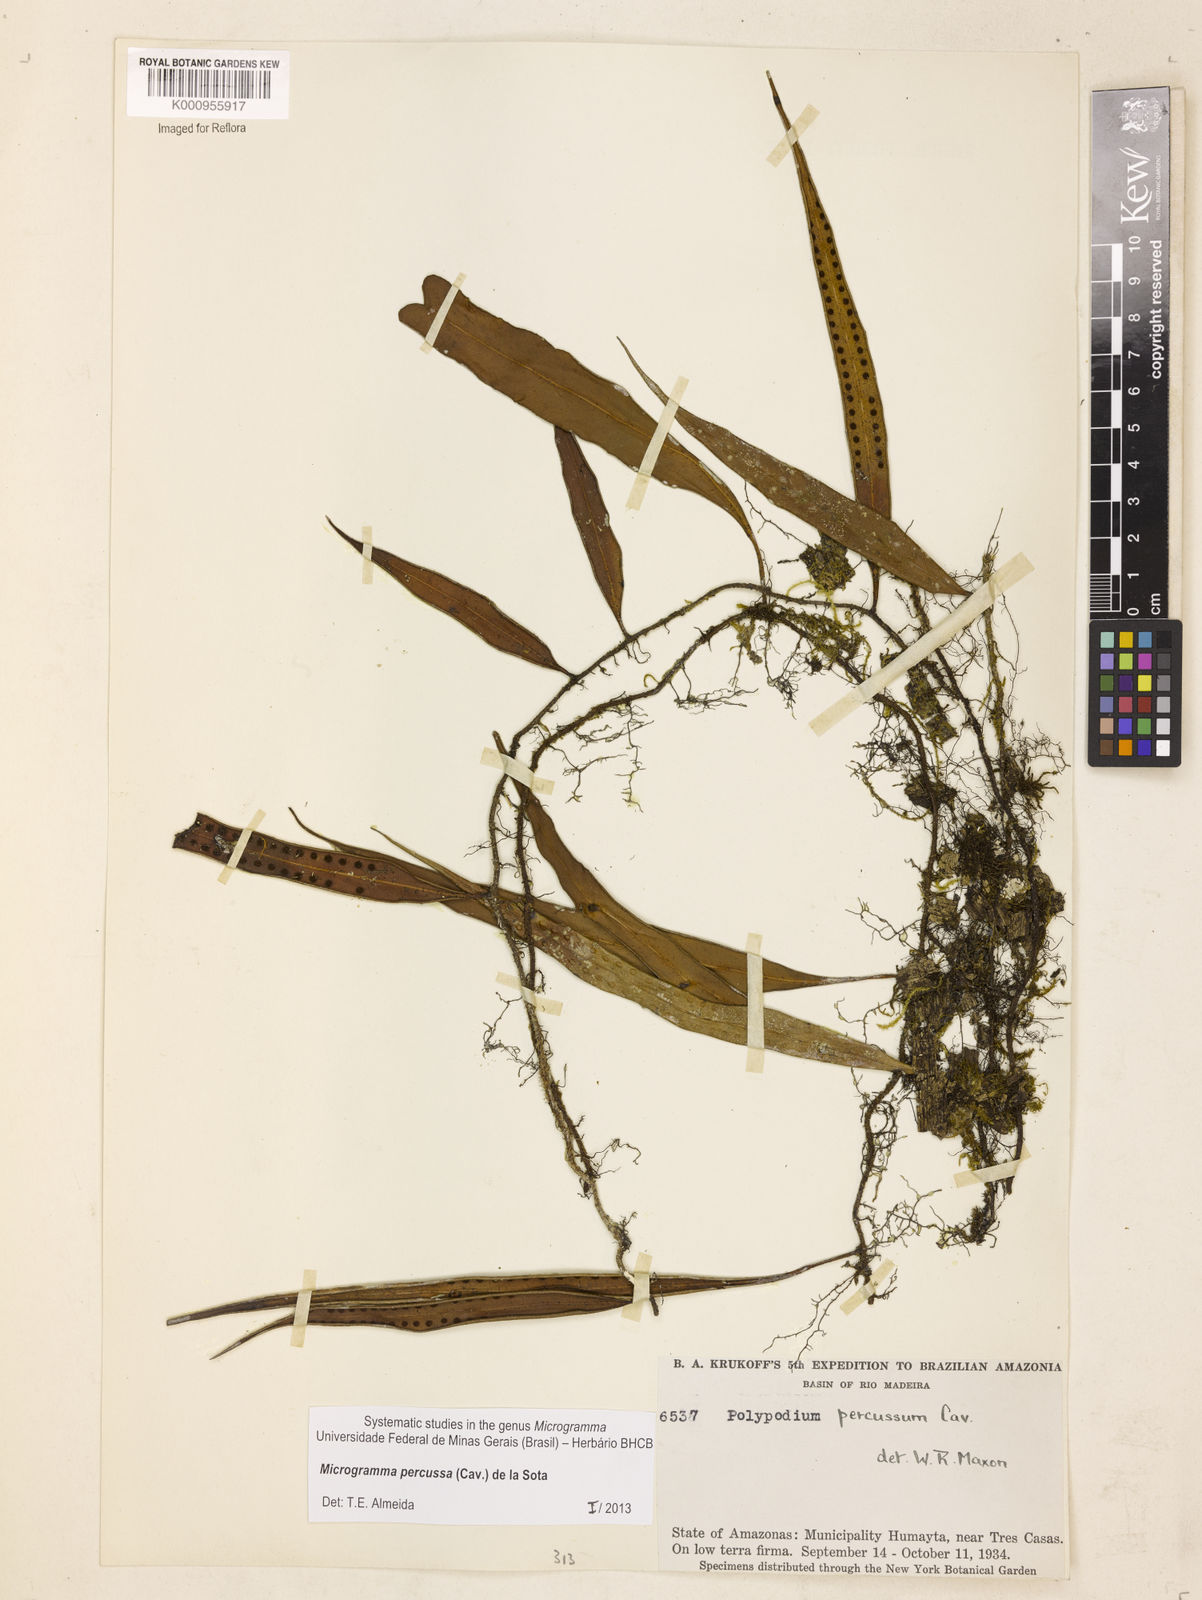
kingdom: Plantae
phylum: Tracheophyta
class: Polypodiopsida
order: Polypodiales
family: Polypodiaceae
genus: Microgramma
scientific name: Microgramma percussa
